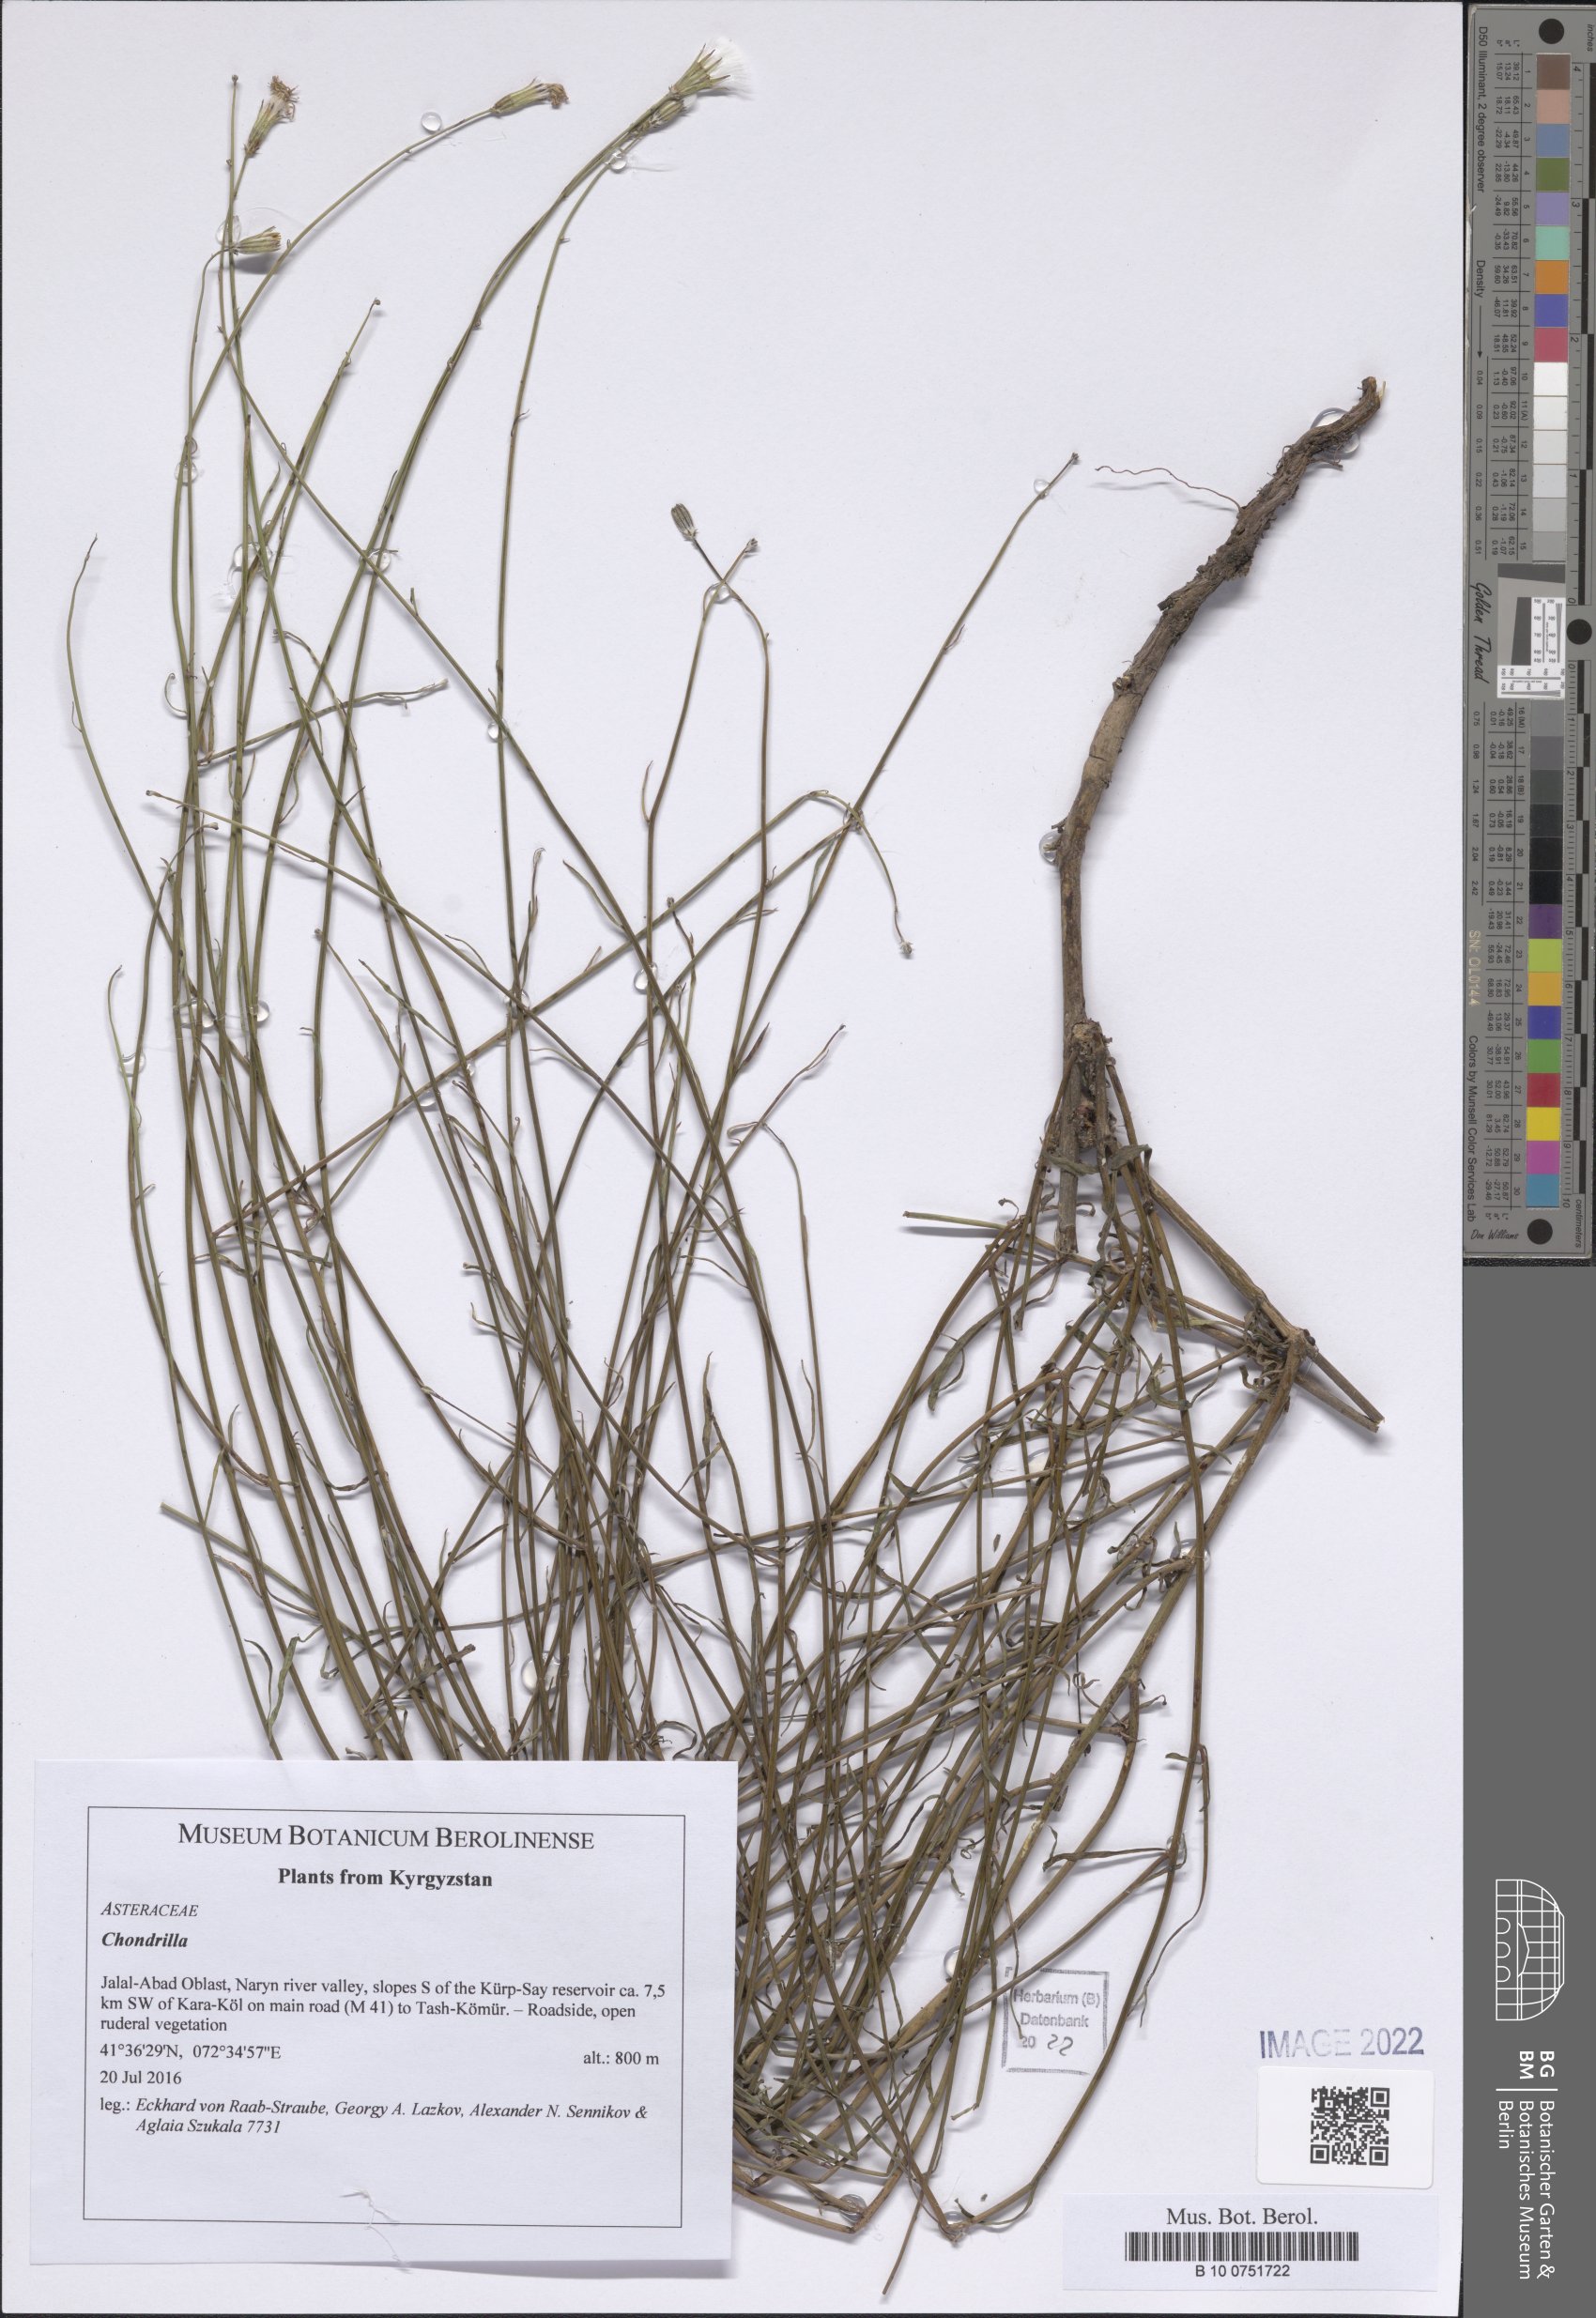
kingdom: Plantae
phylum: Tracheophyta
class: Magnoliopsida
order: Asterales
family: Asteraceae
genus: Chondrilla
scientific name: Chondrilla
